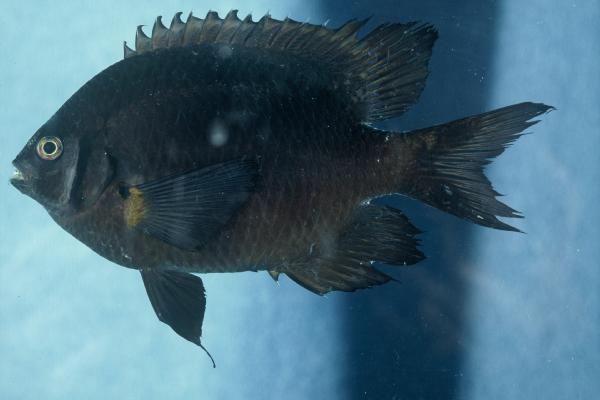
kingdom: Animalia
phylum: Chordata
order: Perciformes
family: Pomacentridae
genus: Neoglyphidodon
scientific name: Neoglyphidodon nigroris
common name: Behn's damsel
